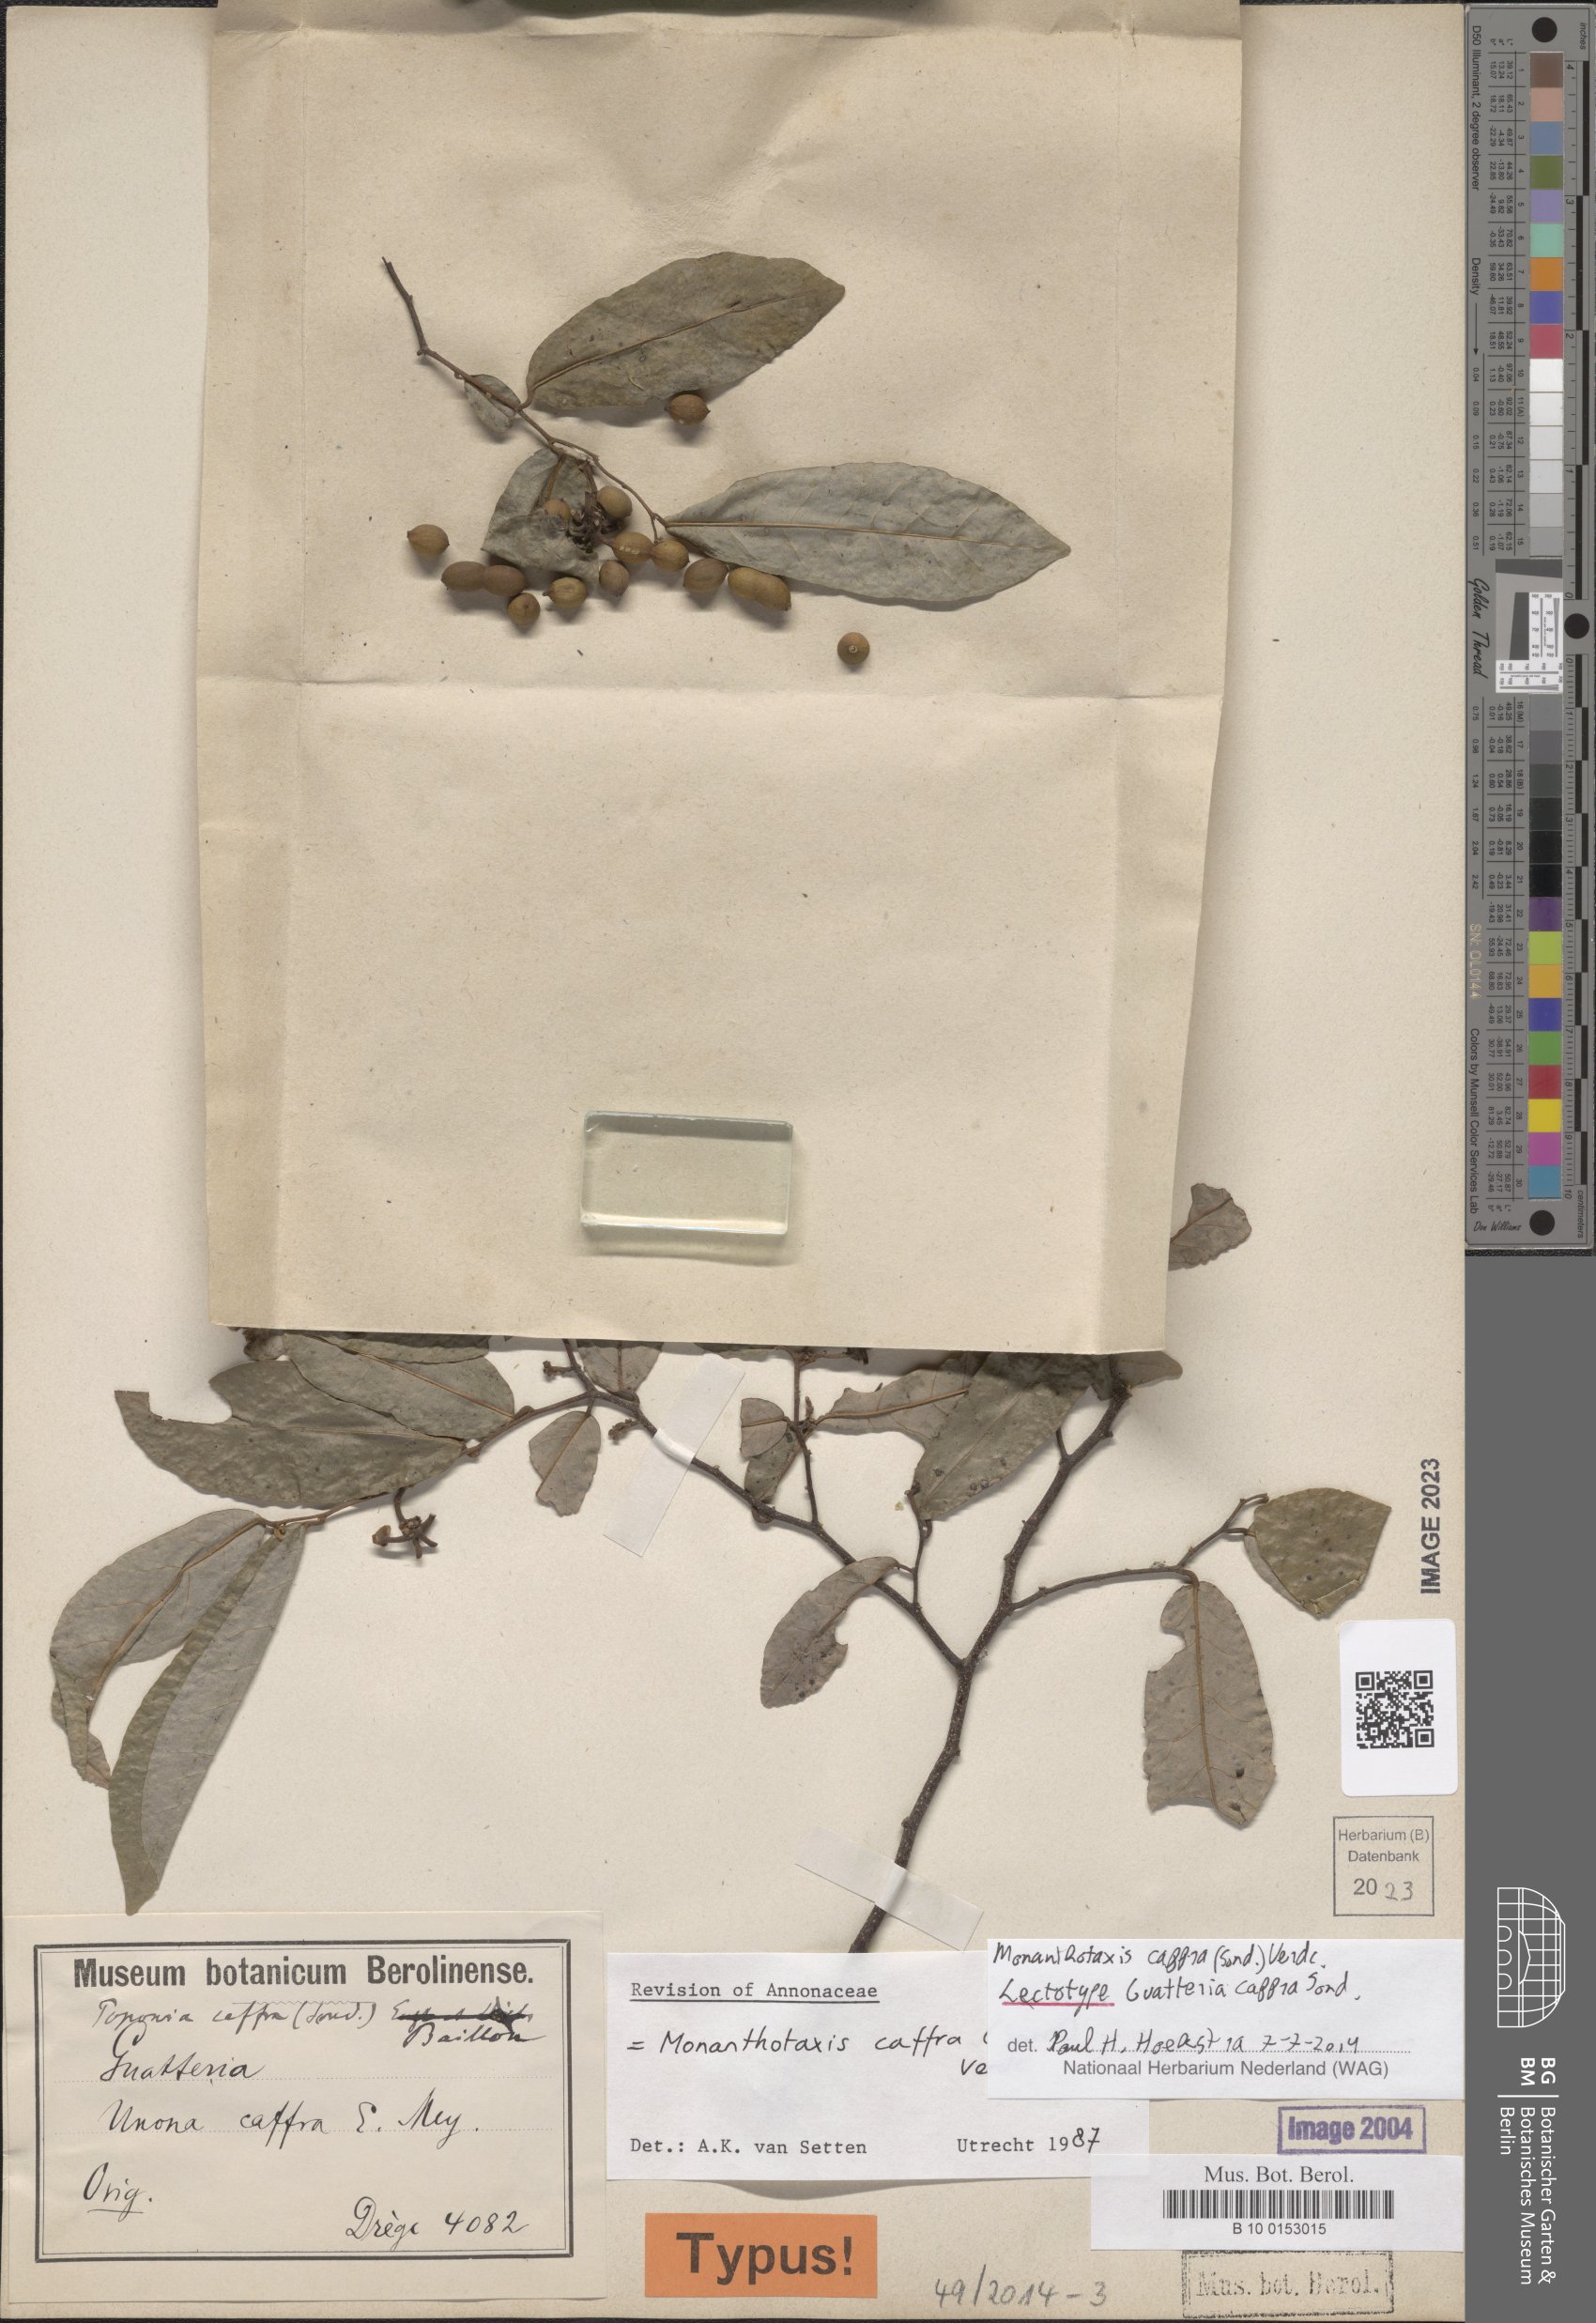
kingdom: Plantae
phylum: Tracheophyta
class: Magnoliopsida
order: Magnoliales
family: Annonaceae
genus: Monanthotaxis
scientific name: Monanthotaxis caffra
